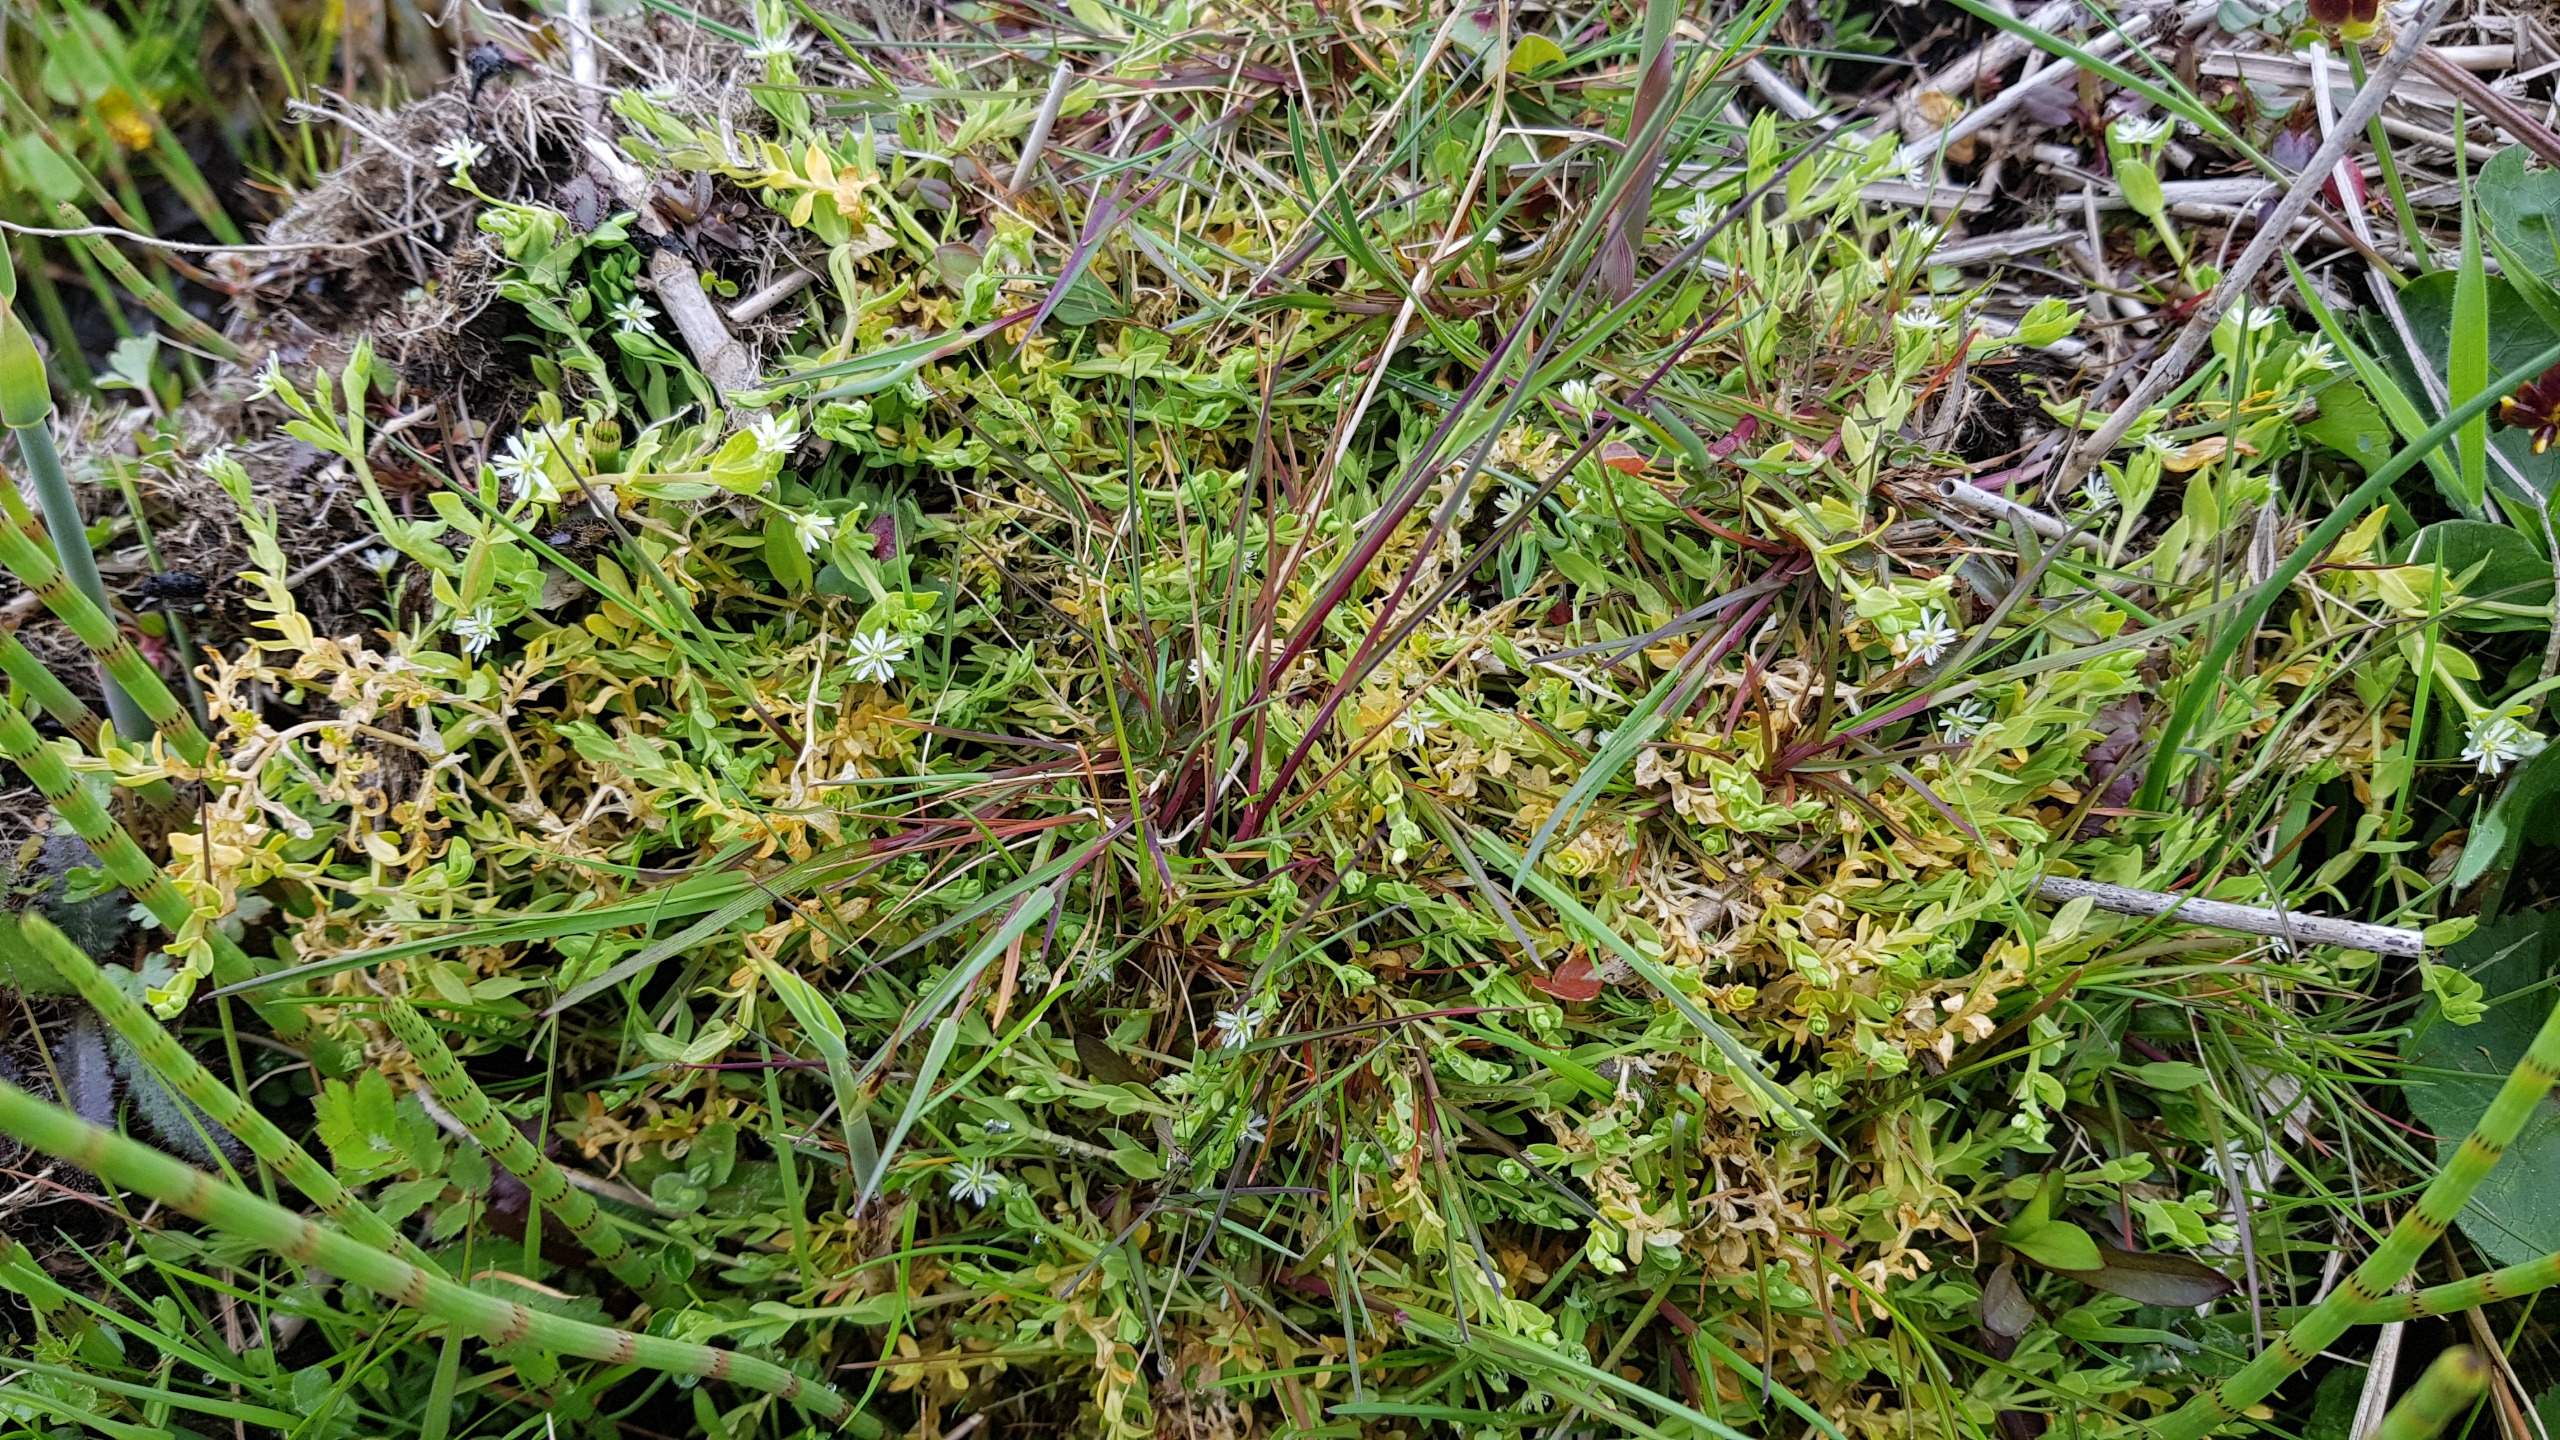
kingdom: Plantae
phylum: Tracheophyta
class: Magnoliopsida
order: Caryophyllales
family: Caryophyllaceae
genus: Stellaria
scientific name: Stellaria alsine
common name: Sump-fladstjerne
